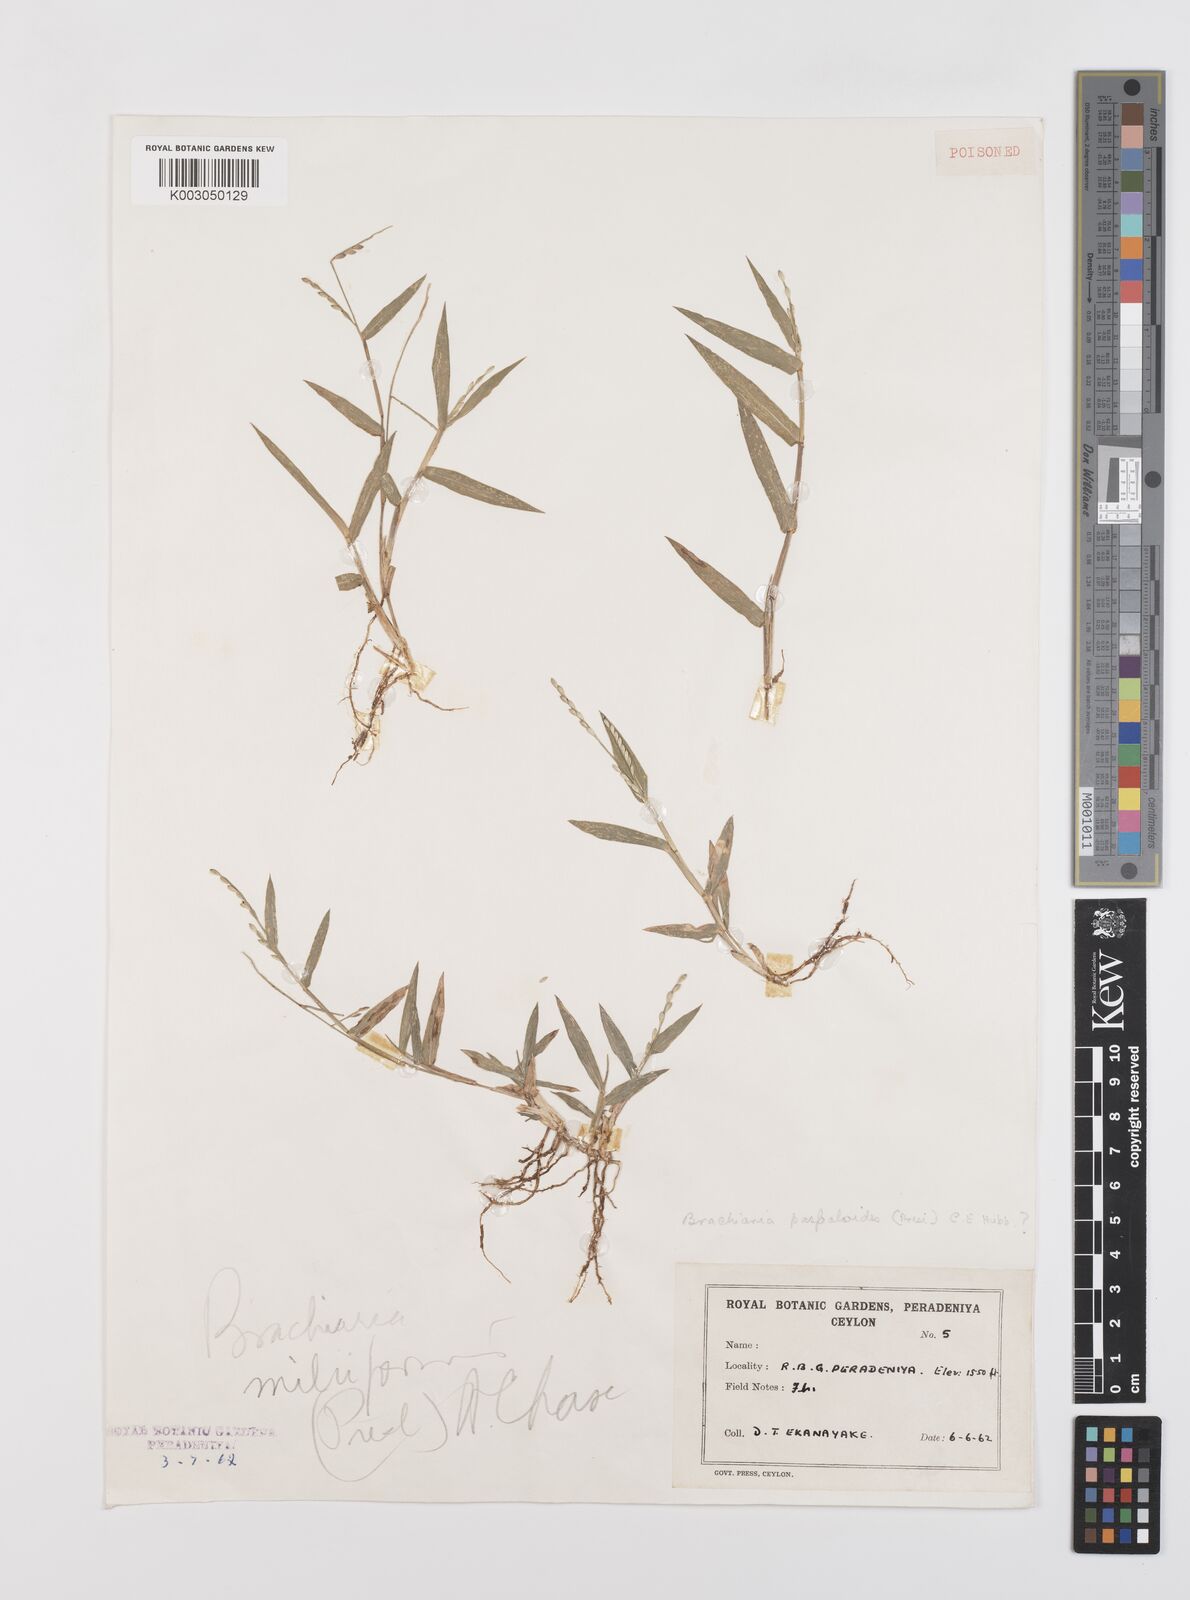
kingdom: Plantae
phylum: Tracheophyta
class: Liliopsida
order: Poales
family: Poaceae
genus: Urochloa
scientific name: Urochloa subquadripara
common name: Armgrass millet
